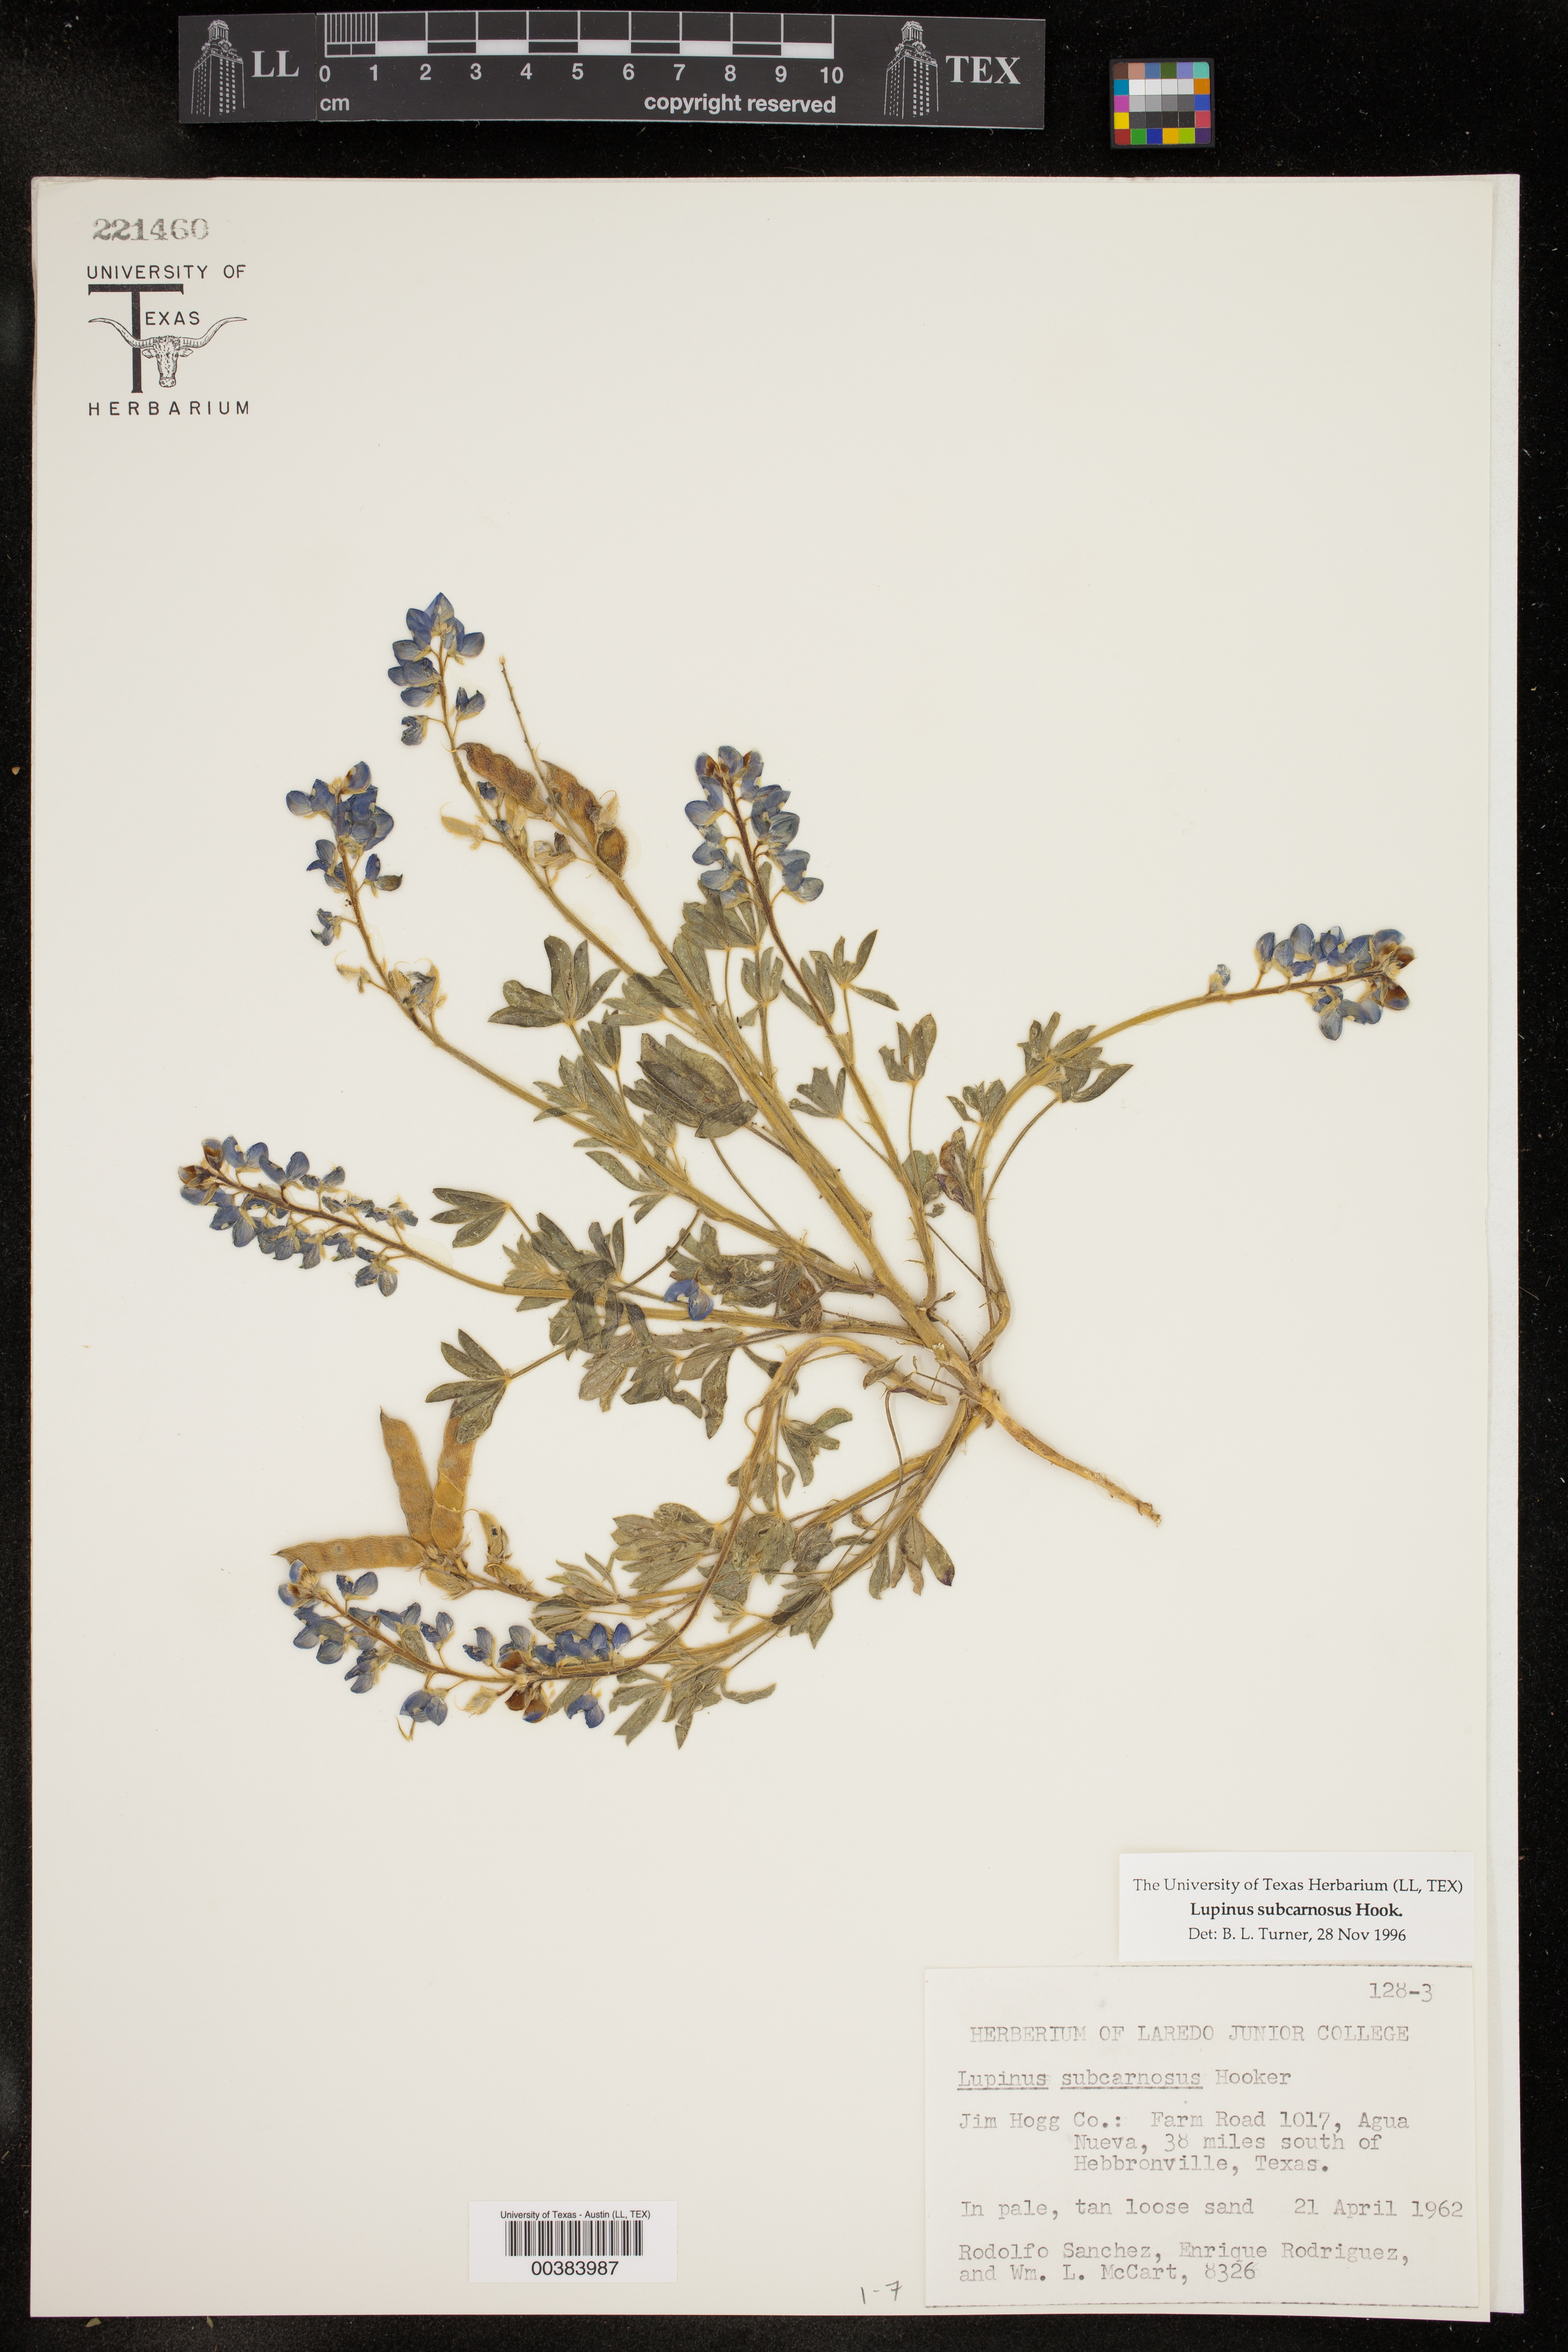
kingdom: Plantae
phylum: Tracheophyta
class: Magnoliopsida
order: Fabales
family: Fabaceae
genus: Lupinus
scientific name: Lupinus subcarnosus
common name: Texas bluebonnet
